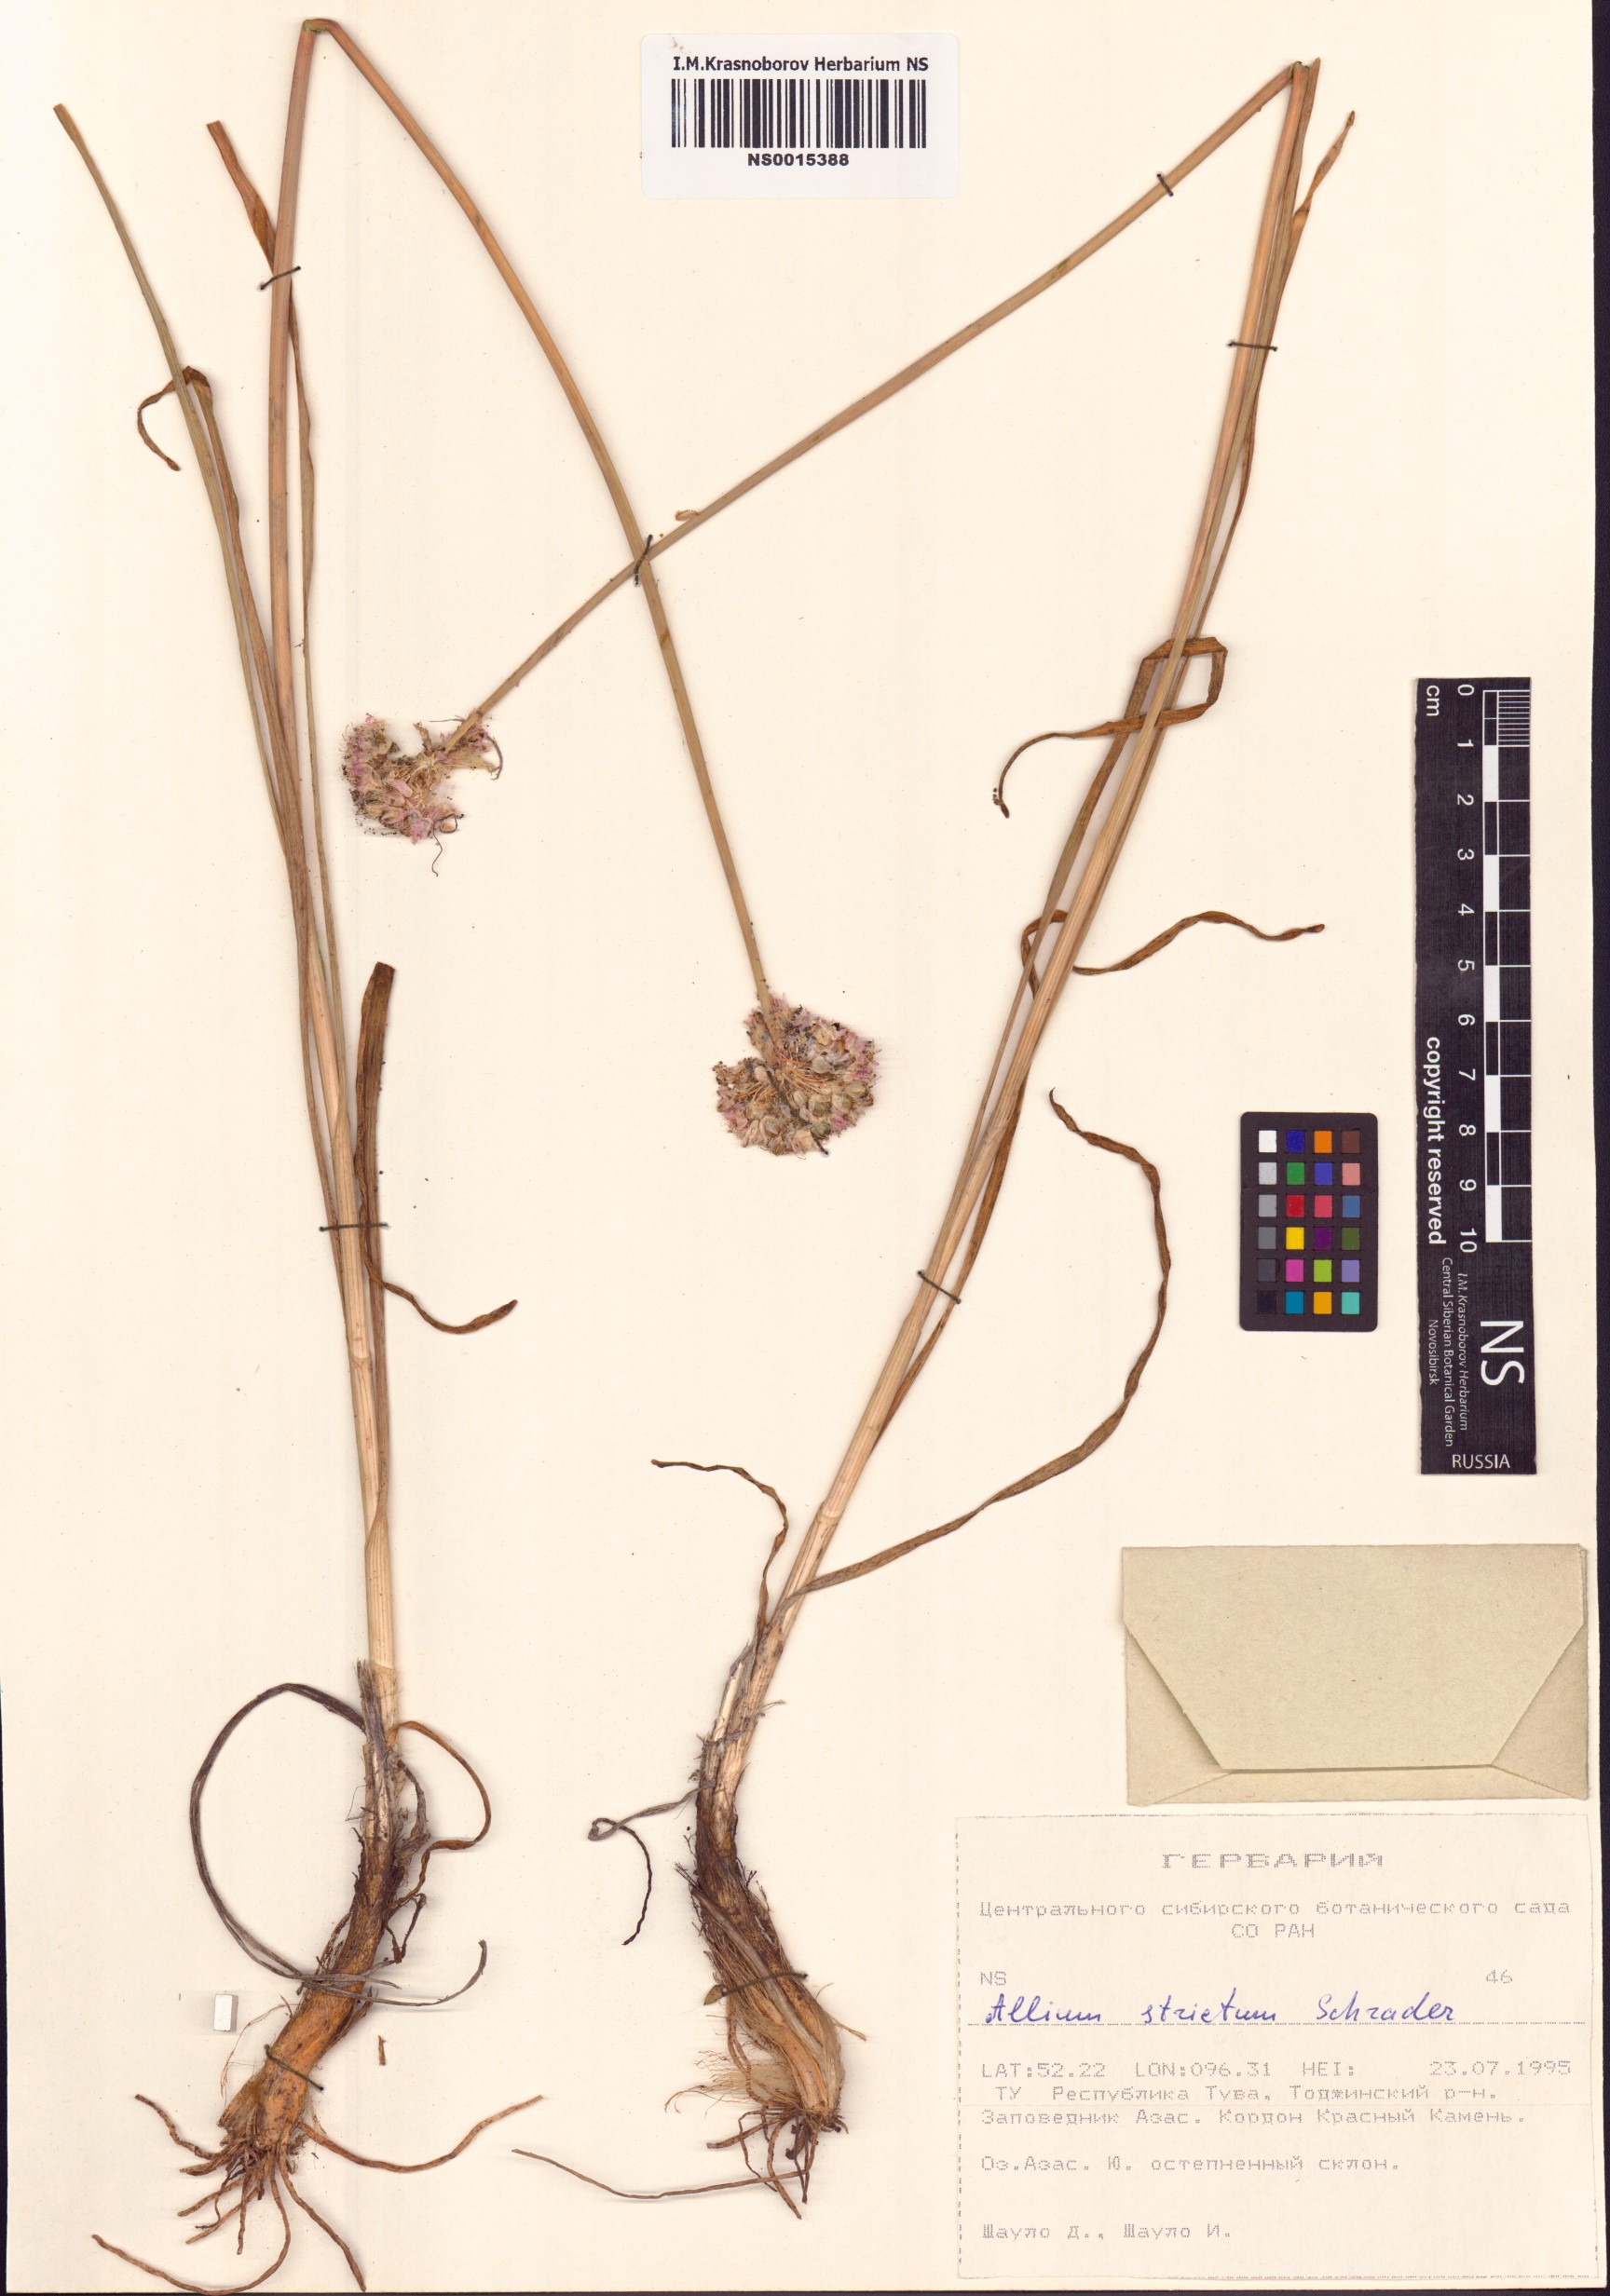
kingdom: Plantae
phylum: Tracheophyta
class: Liliopsida
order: Asparagales
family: Amaryllidaceae
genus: Allium
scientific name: Allium strictum
